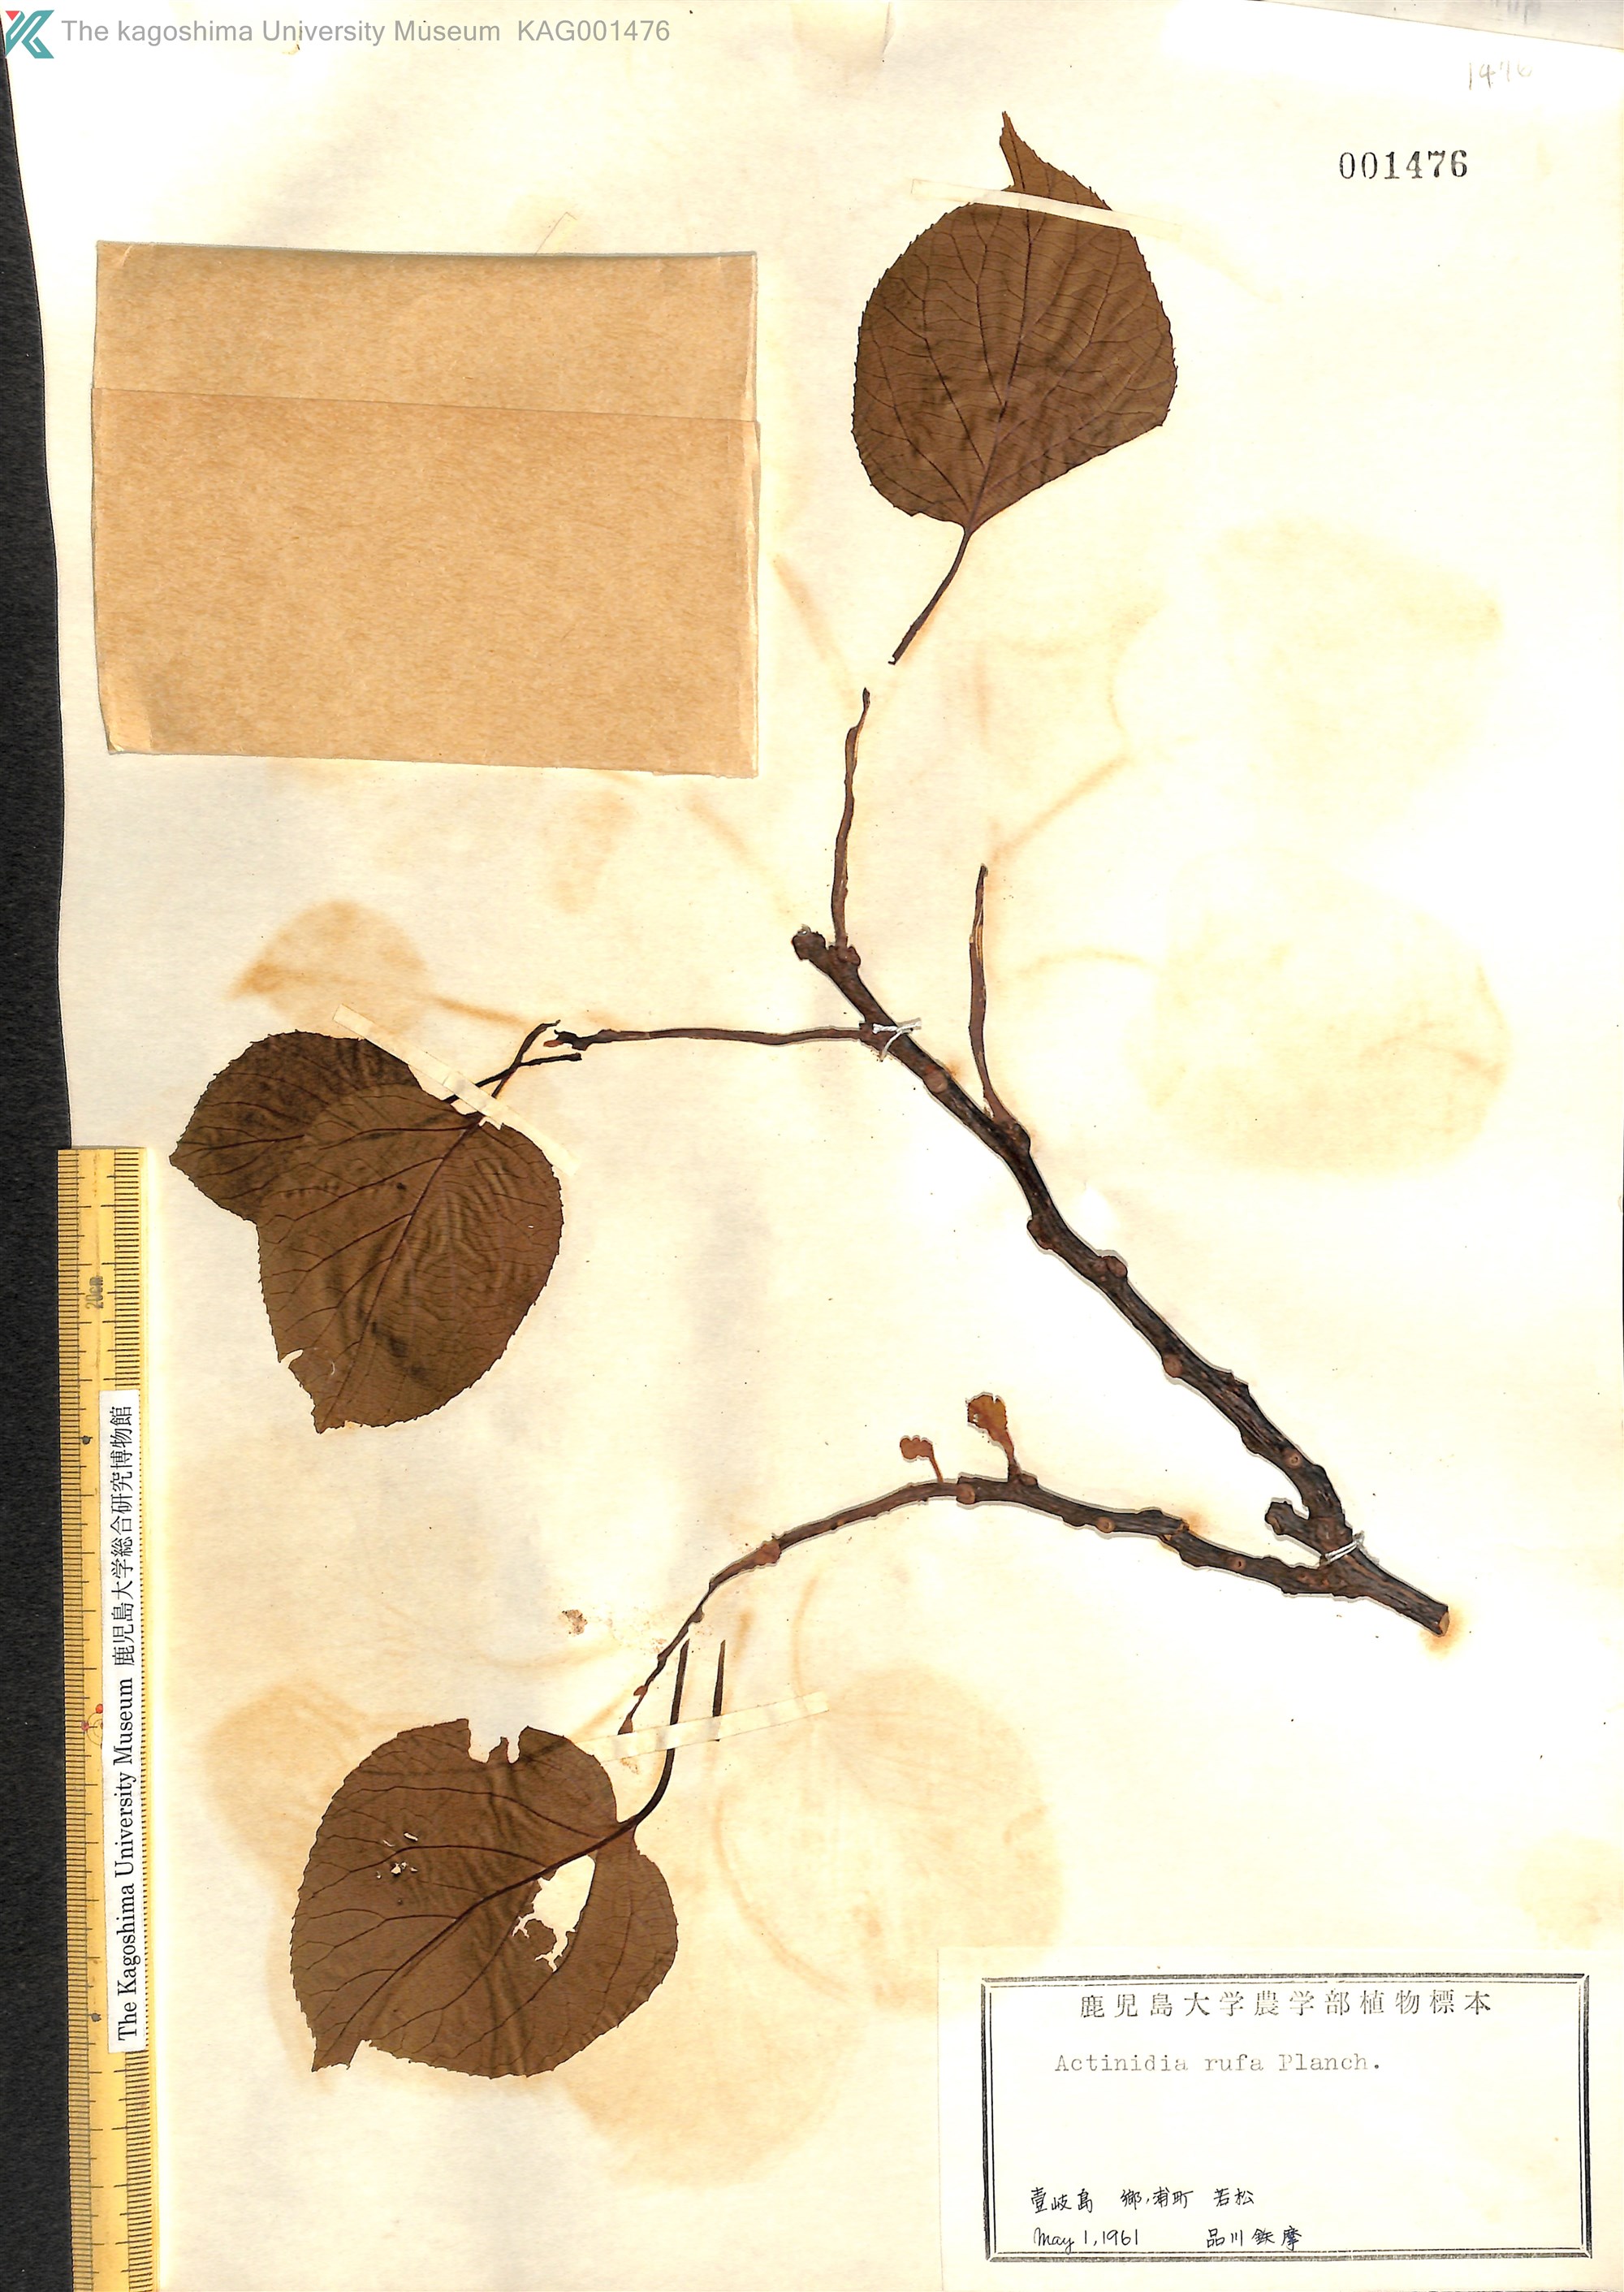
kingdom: Plantae
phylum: Tracheophyta
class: Magnoliopsida
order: Ericales
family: Actinidiaceae
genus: Actinidia
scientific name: Actinidia rufa
